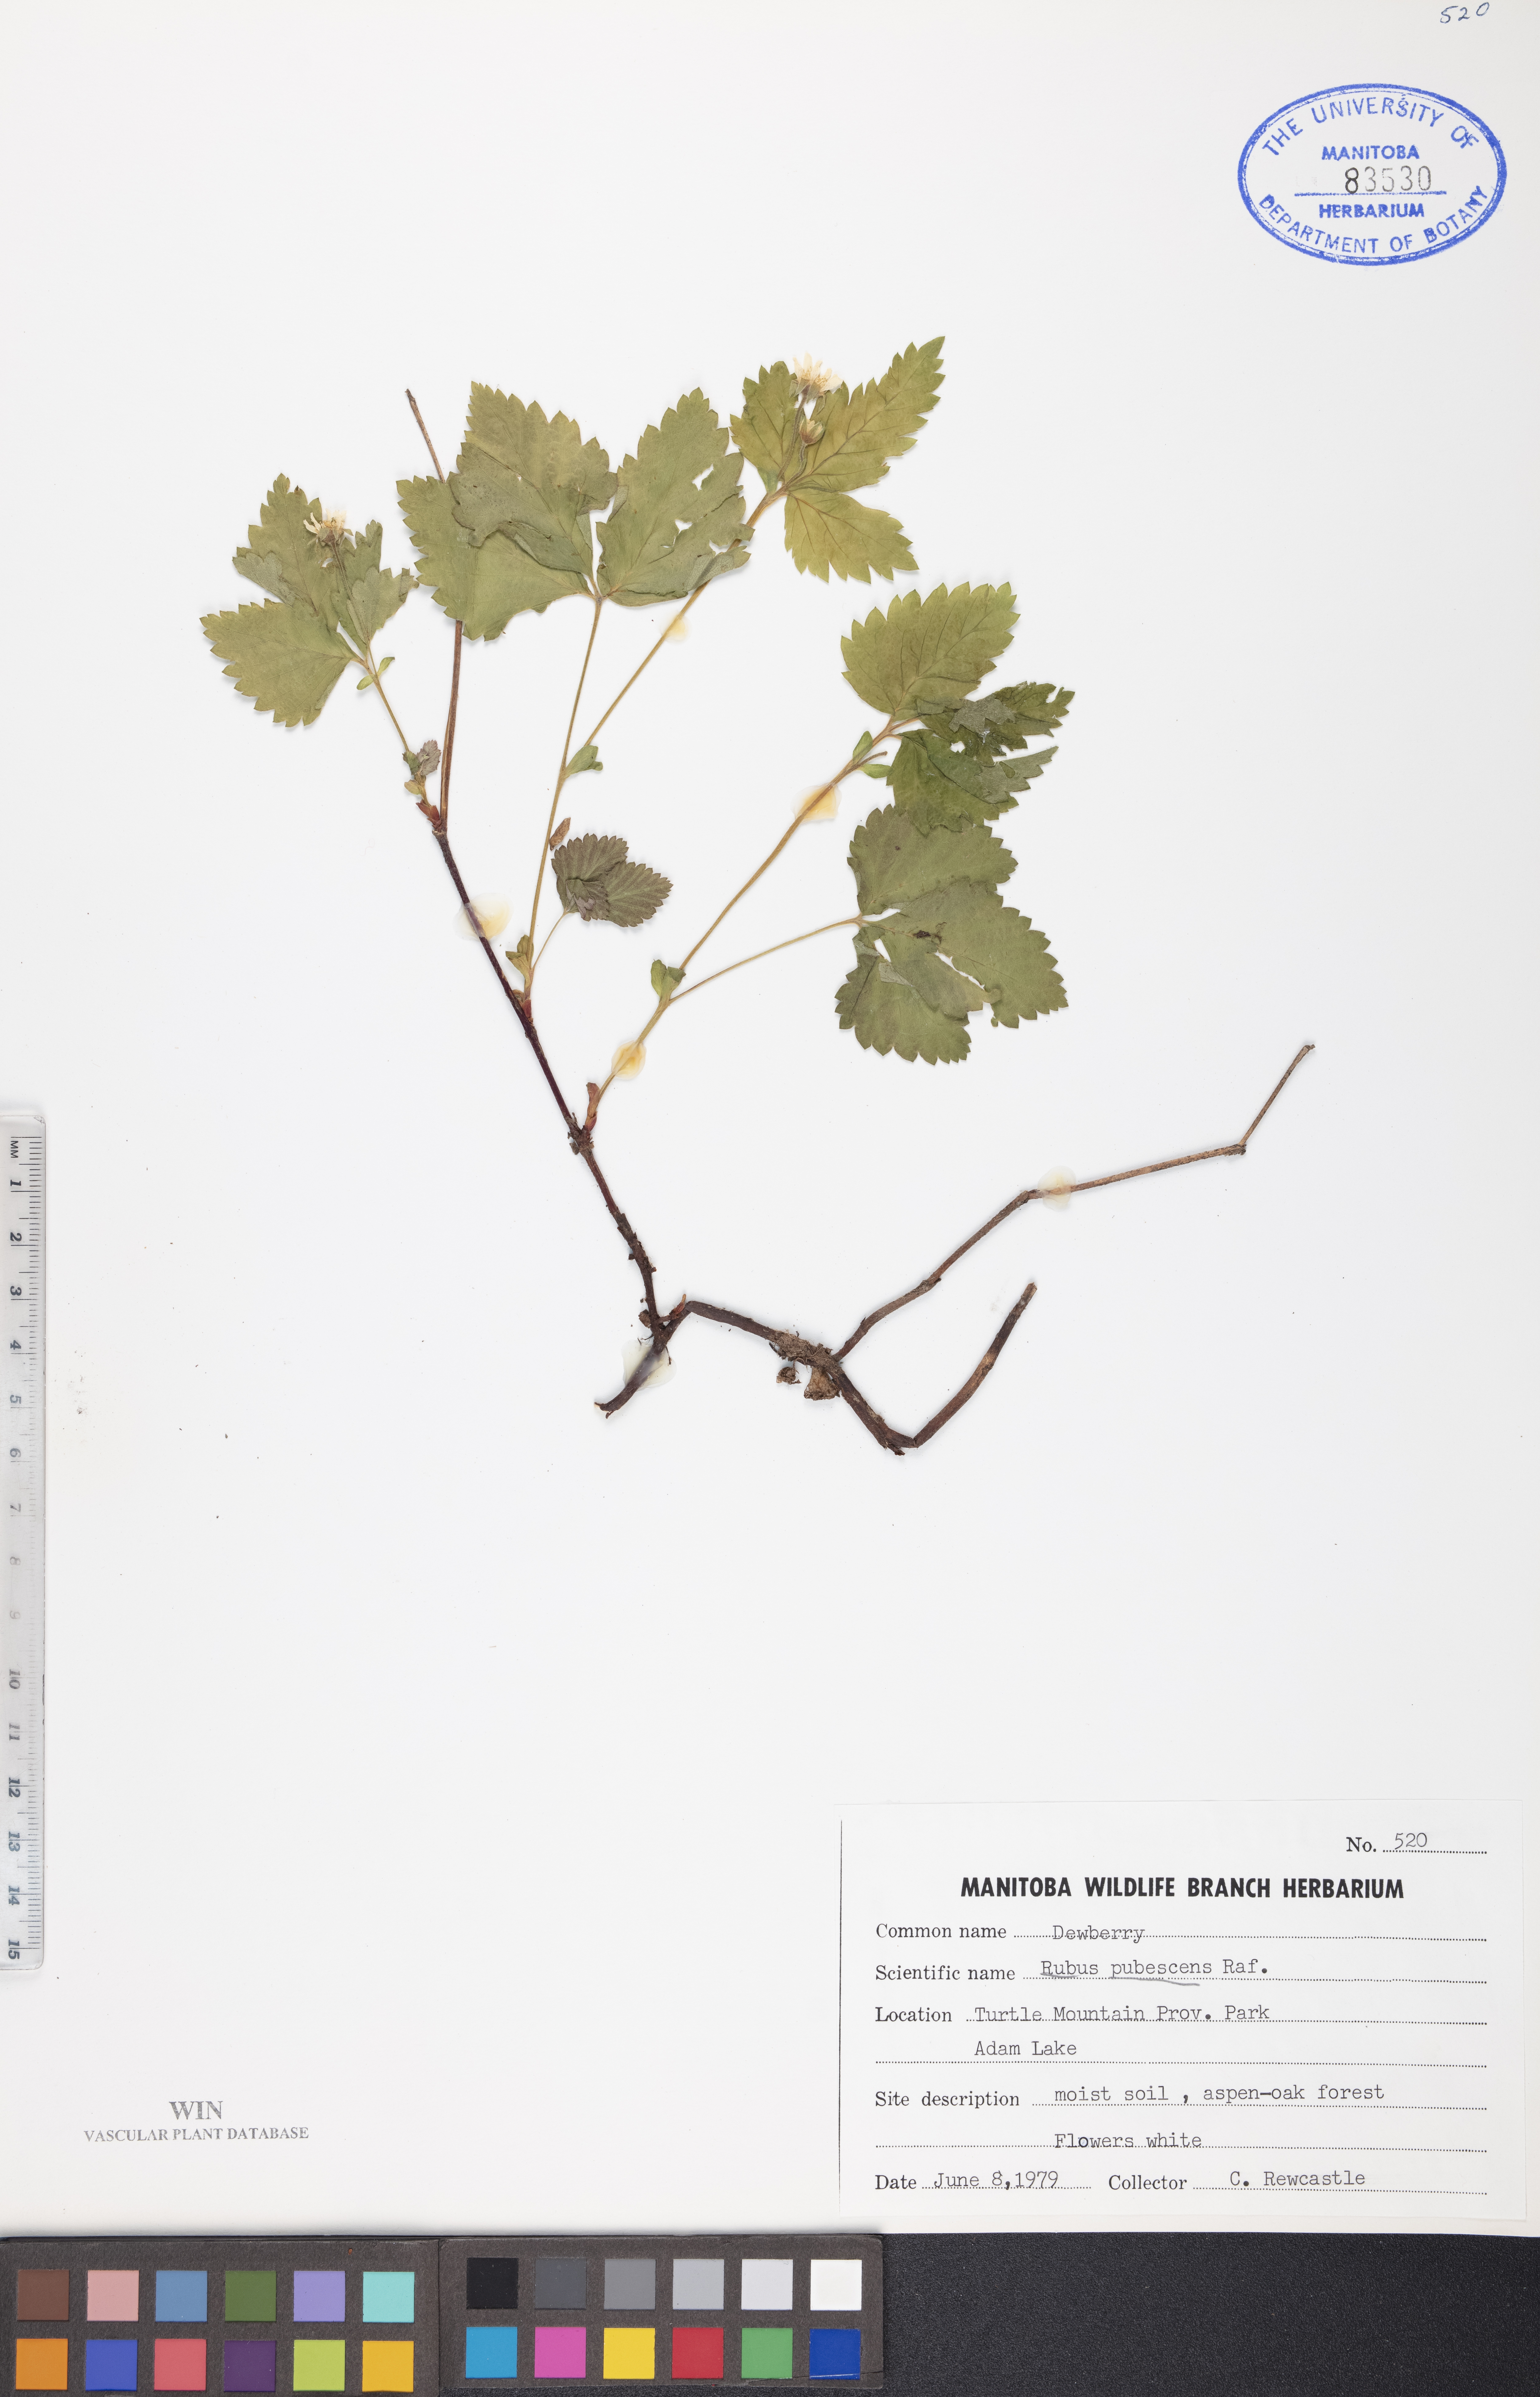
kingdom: Plantae
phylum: Tracheophyta
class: Magnoliopsida
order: Rosales
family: Rosaceae
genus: Rubus
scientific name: Rubus pubescens
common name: Dwarf raspberry
